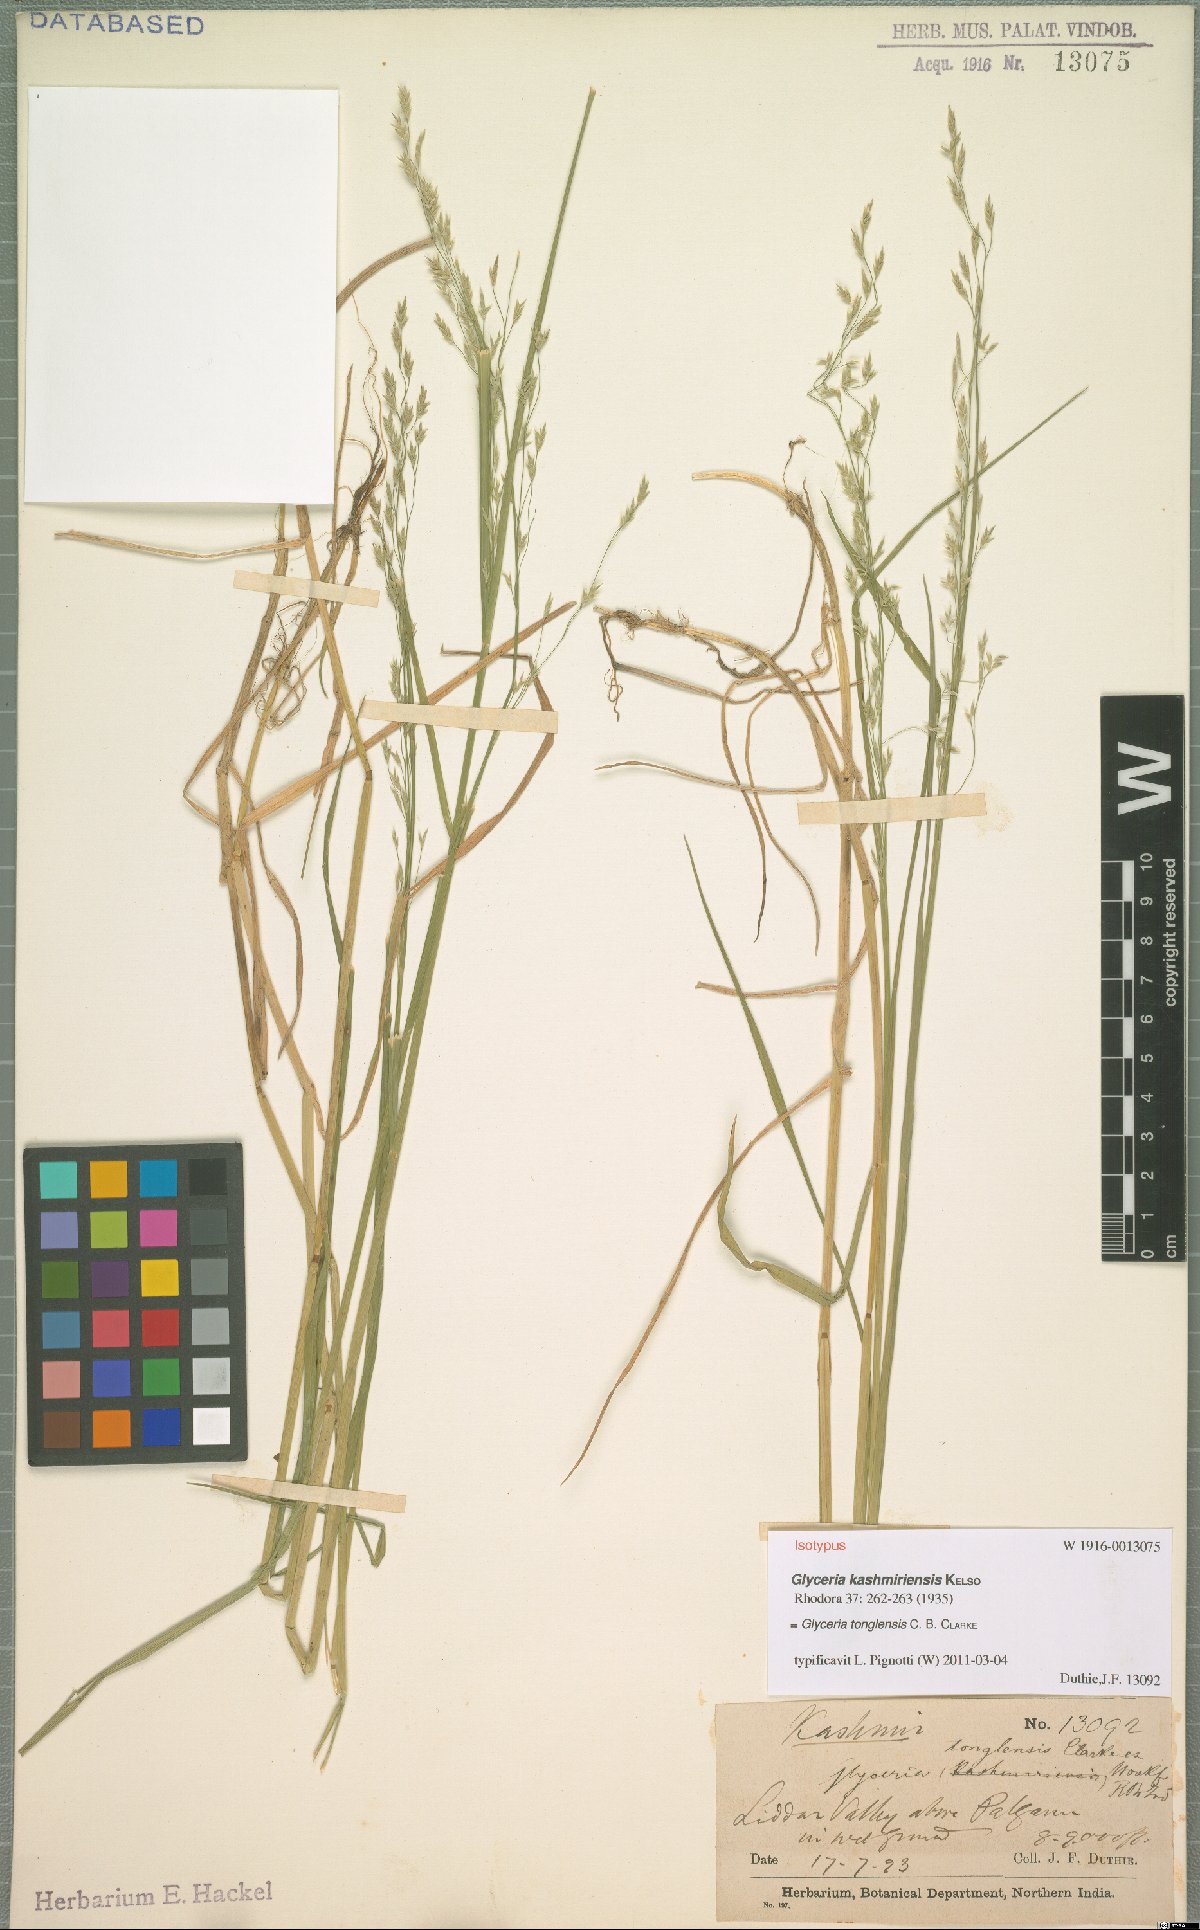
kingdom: Plantae
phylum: Tracheophyta
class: Liliopsida
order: Poales
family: Poaceae
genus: Glyceria
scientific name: Glyceria tonglensis
